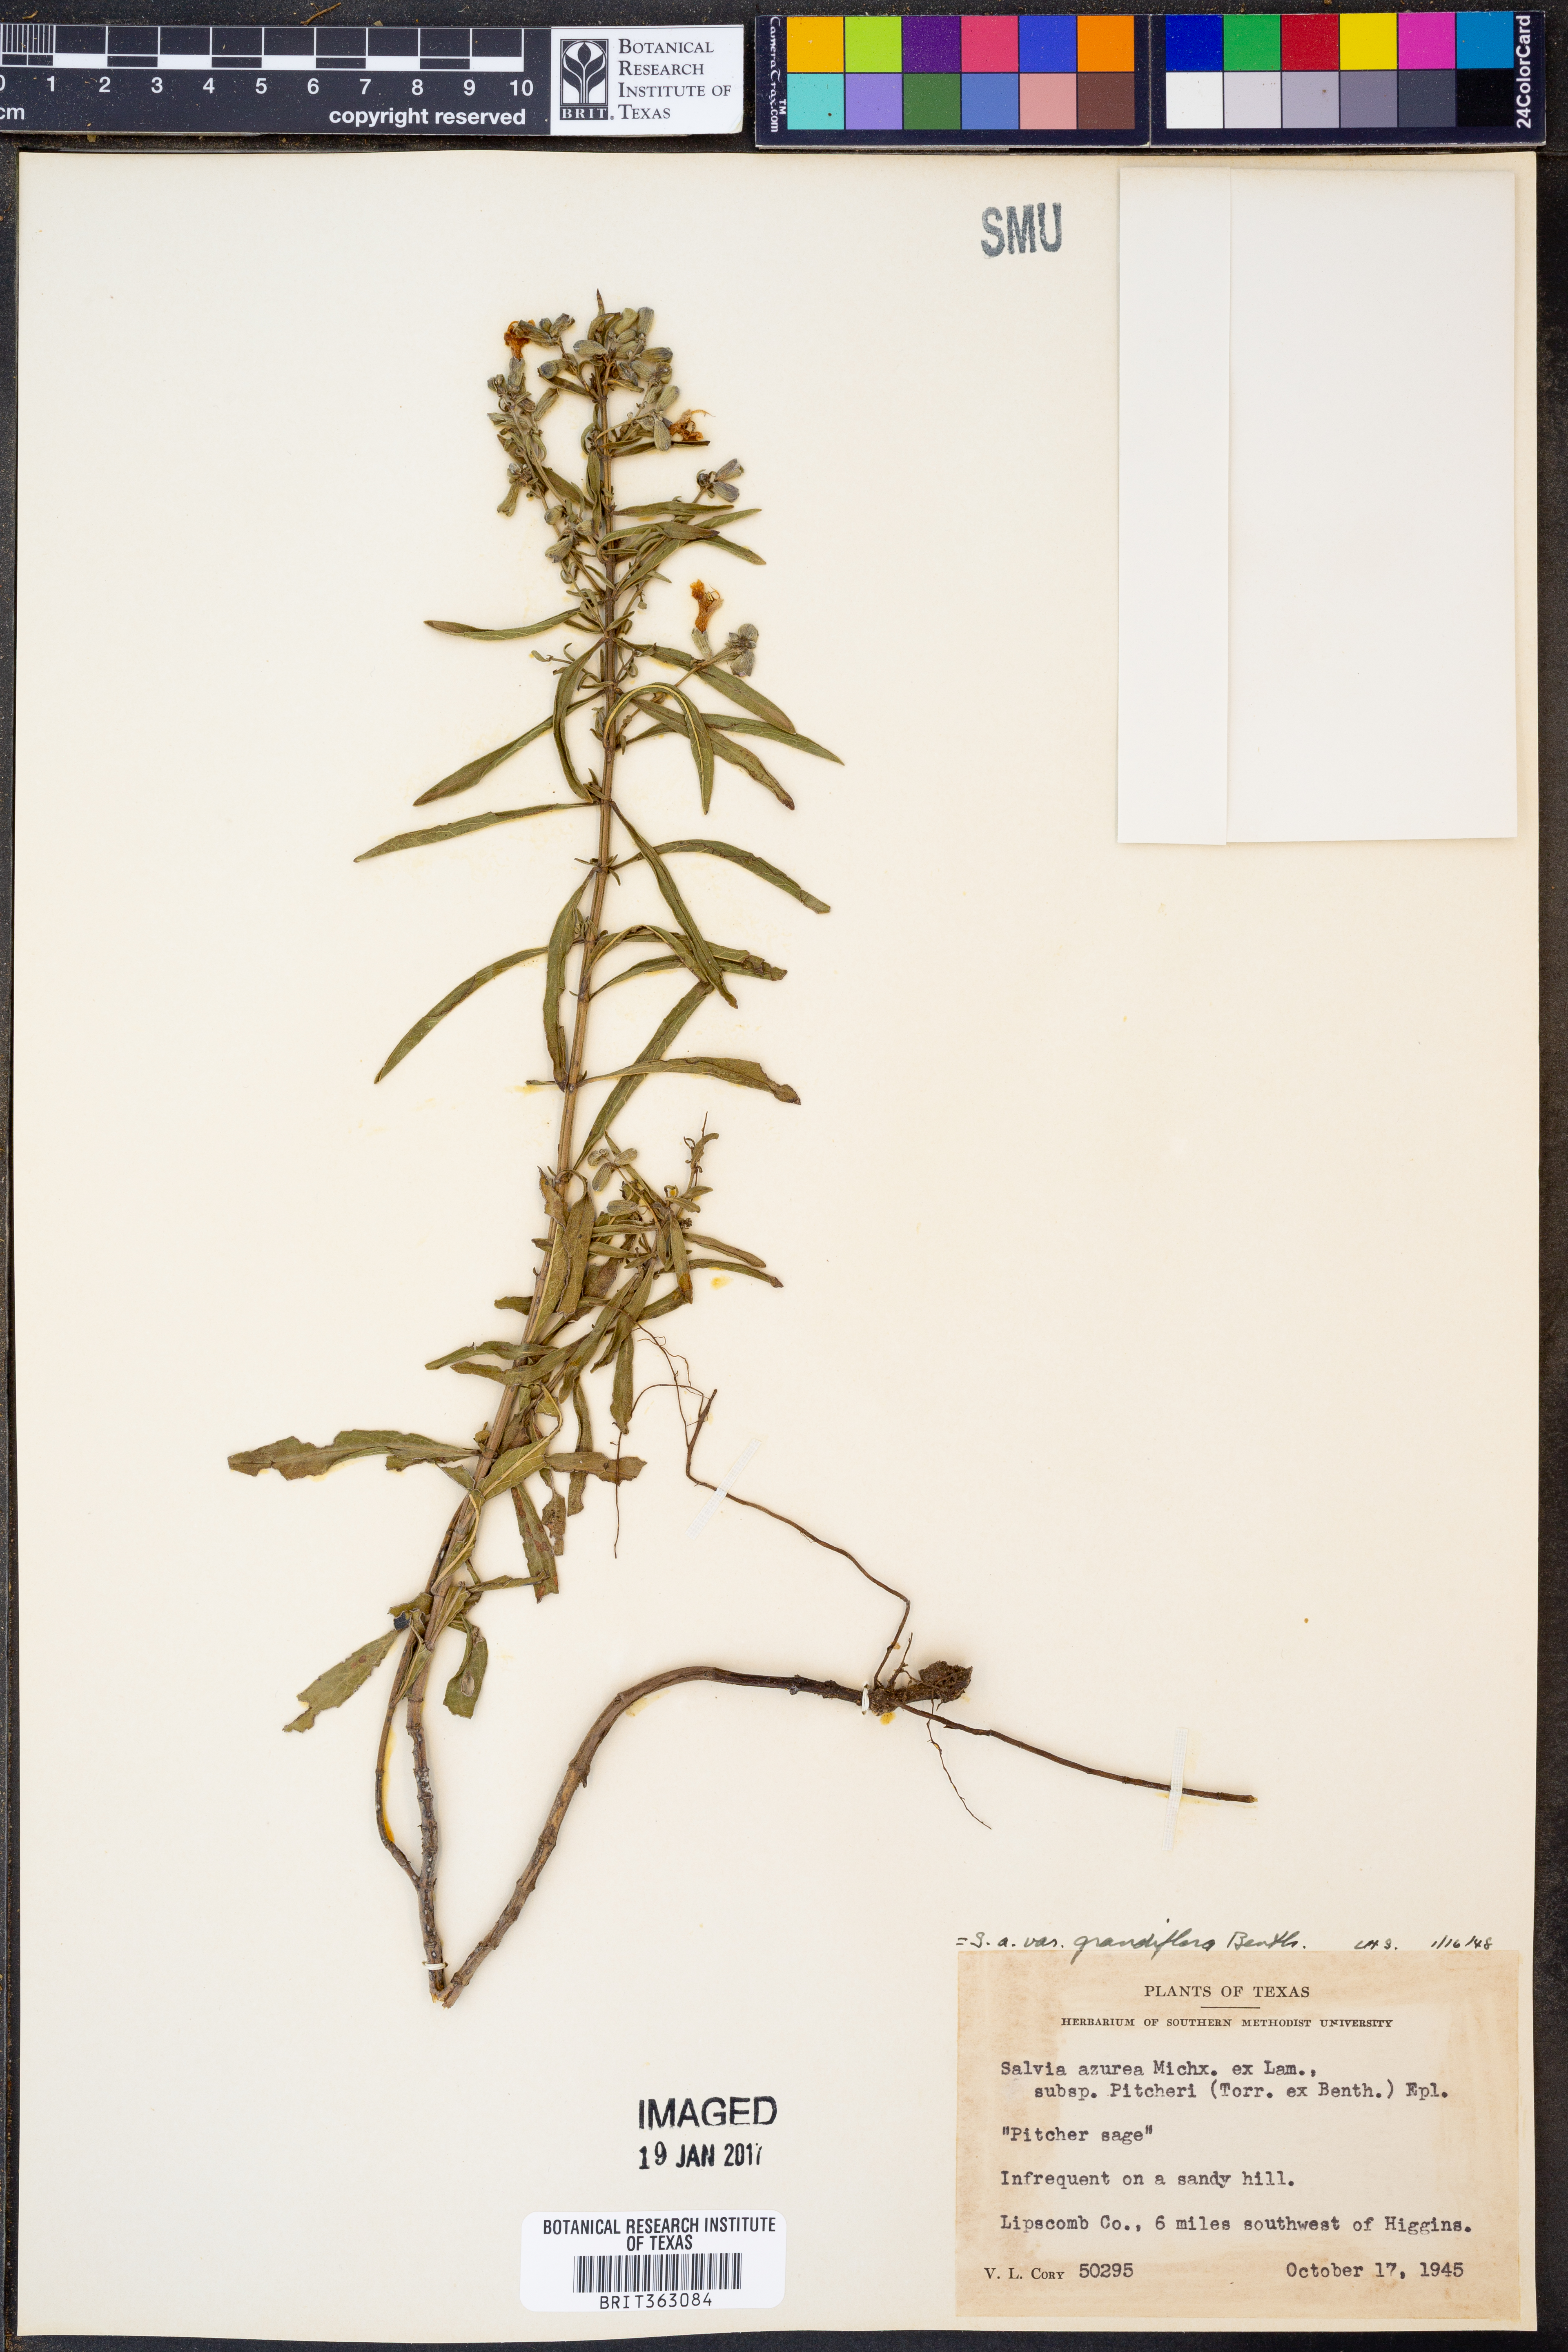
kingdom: Plantae
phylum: Tracheophyta
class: Magnoliopsida
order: Lamiales
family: Lamiaceae
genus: Salvia
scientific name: Salvia azurea
